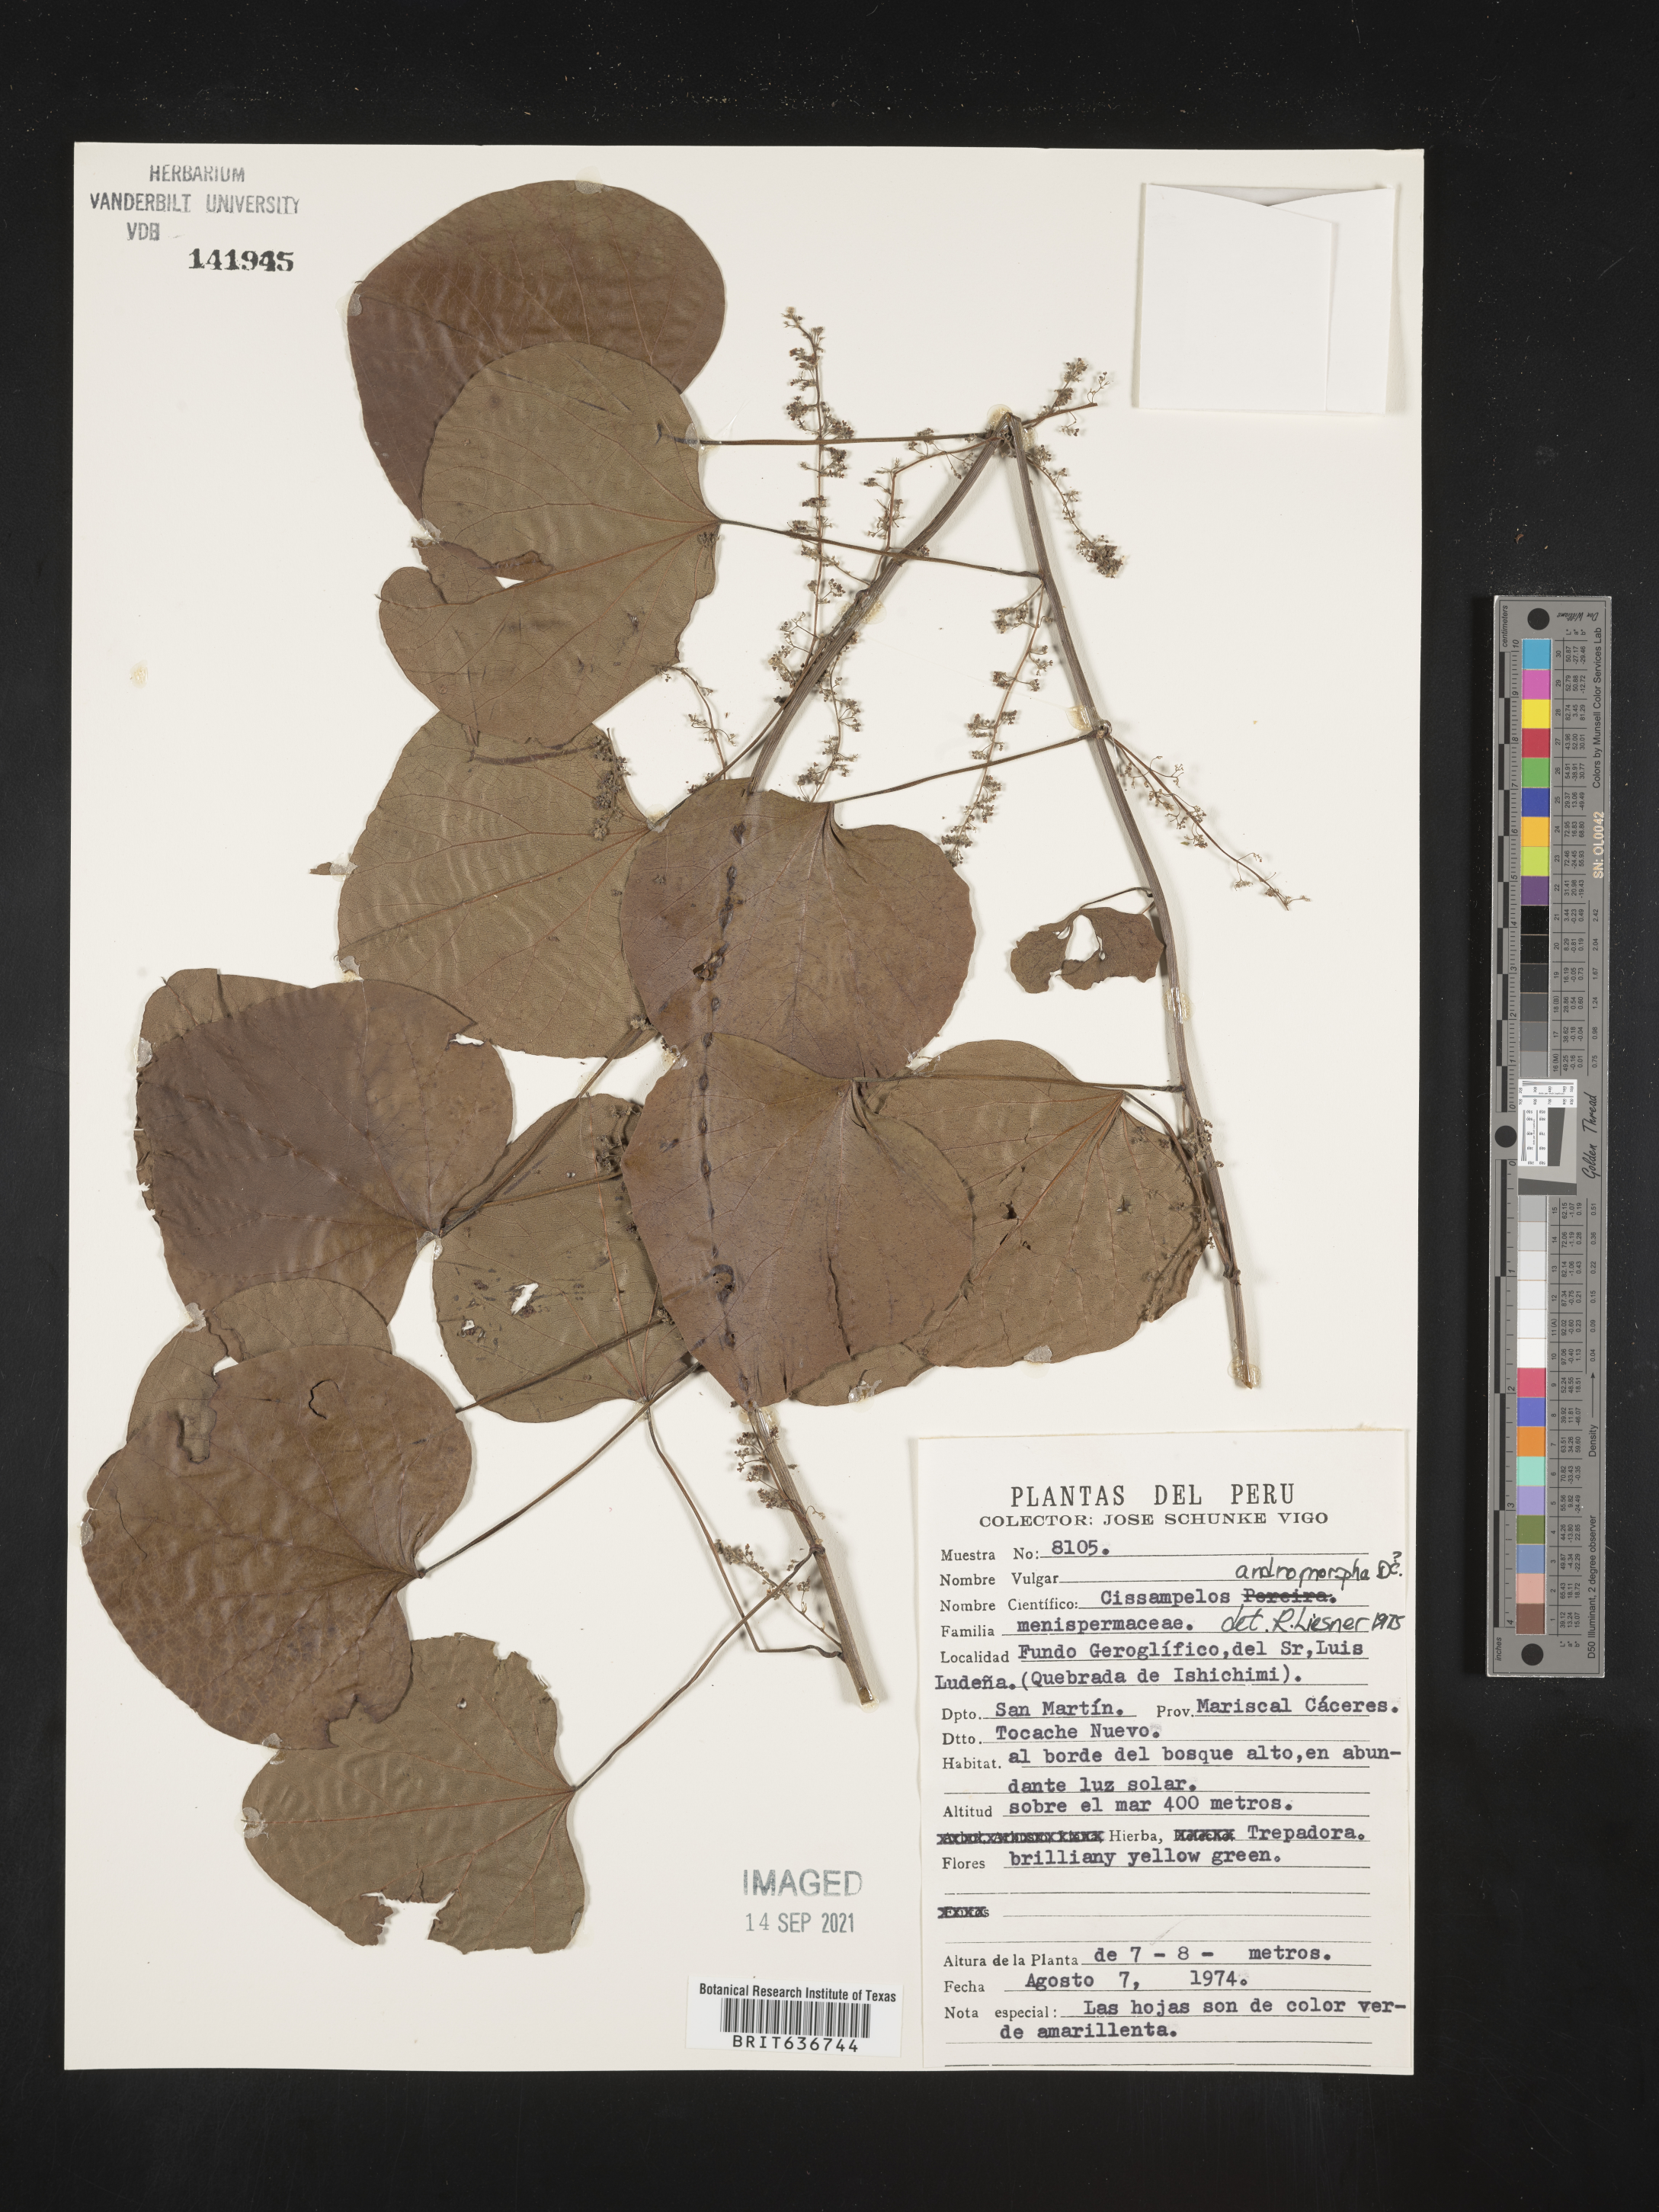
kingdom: Plantae
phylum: Tracheophyta
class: Magnoliopsida
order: Ranunculales
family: Menispermaceae
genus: Cissampelos
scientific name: Cissampelos
